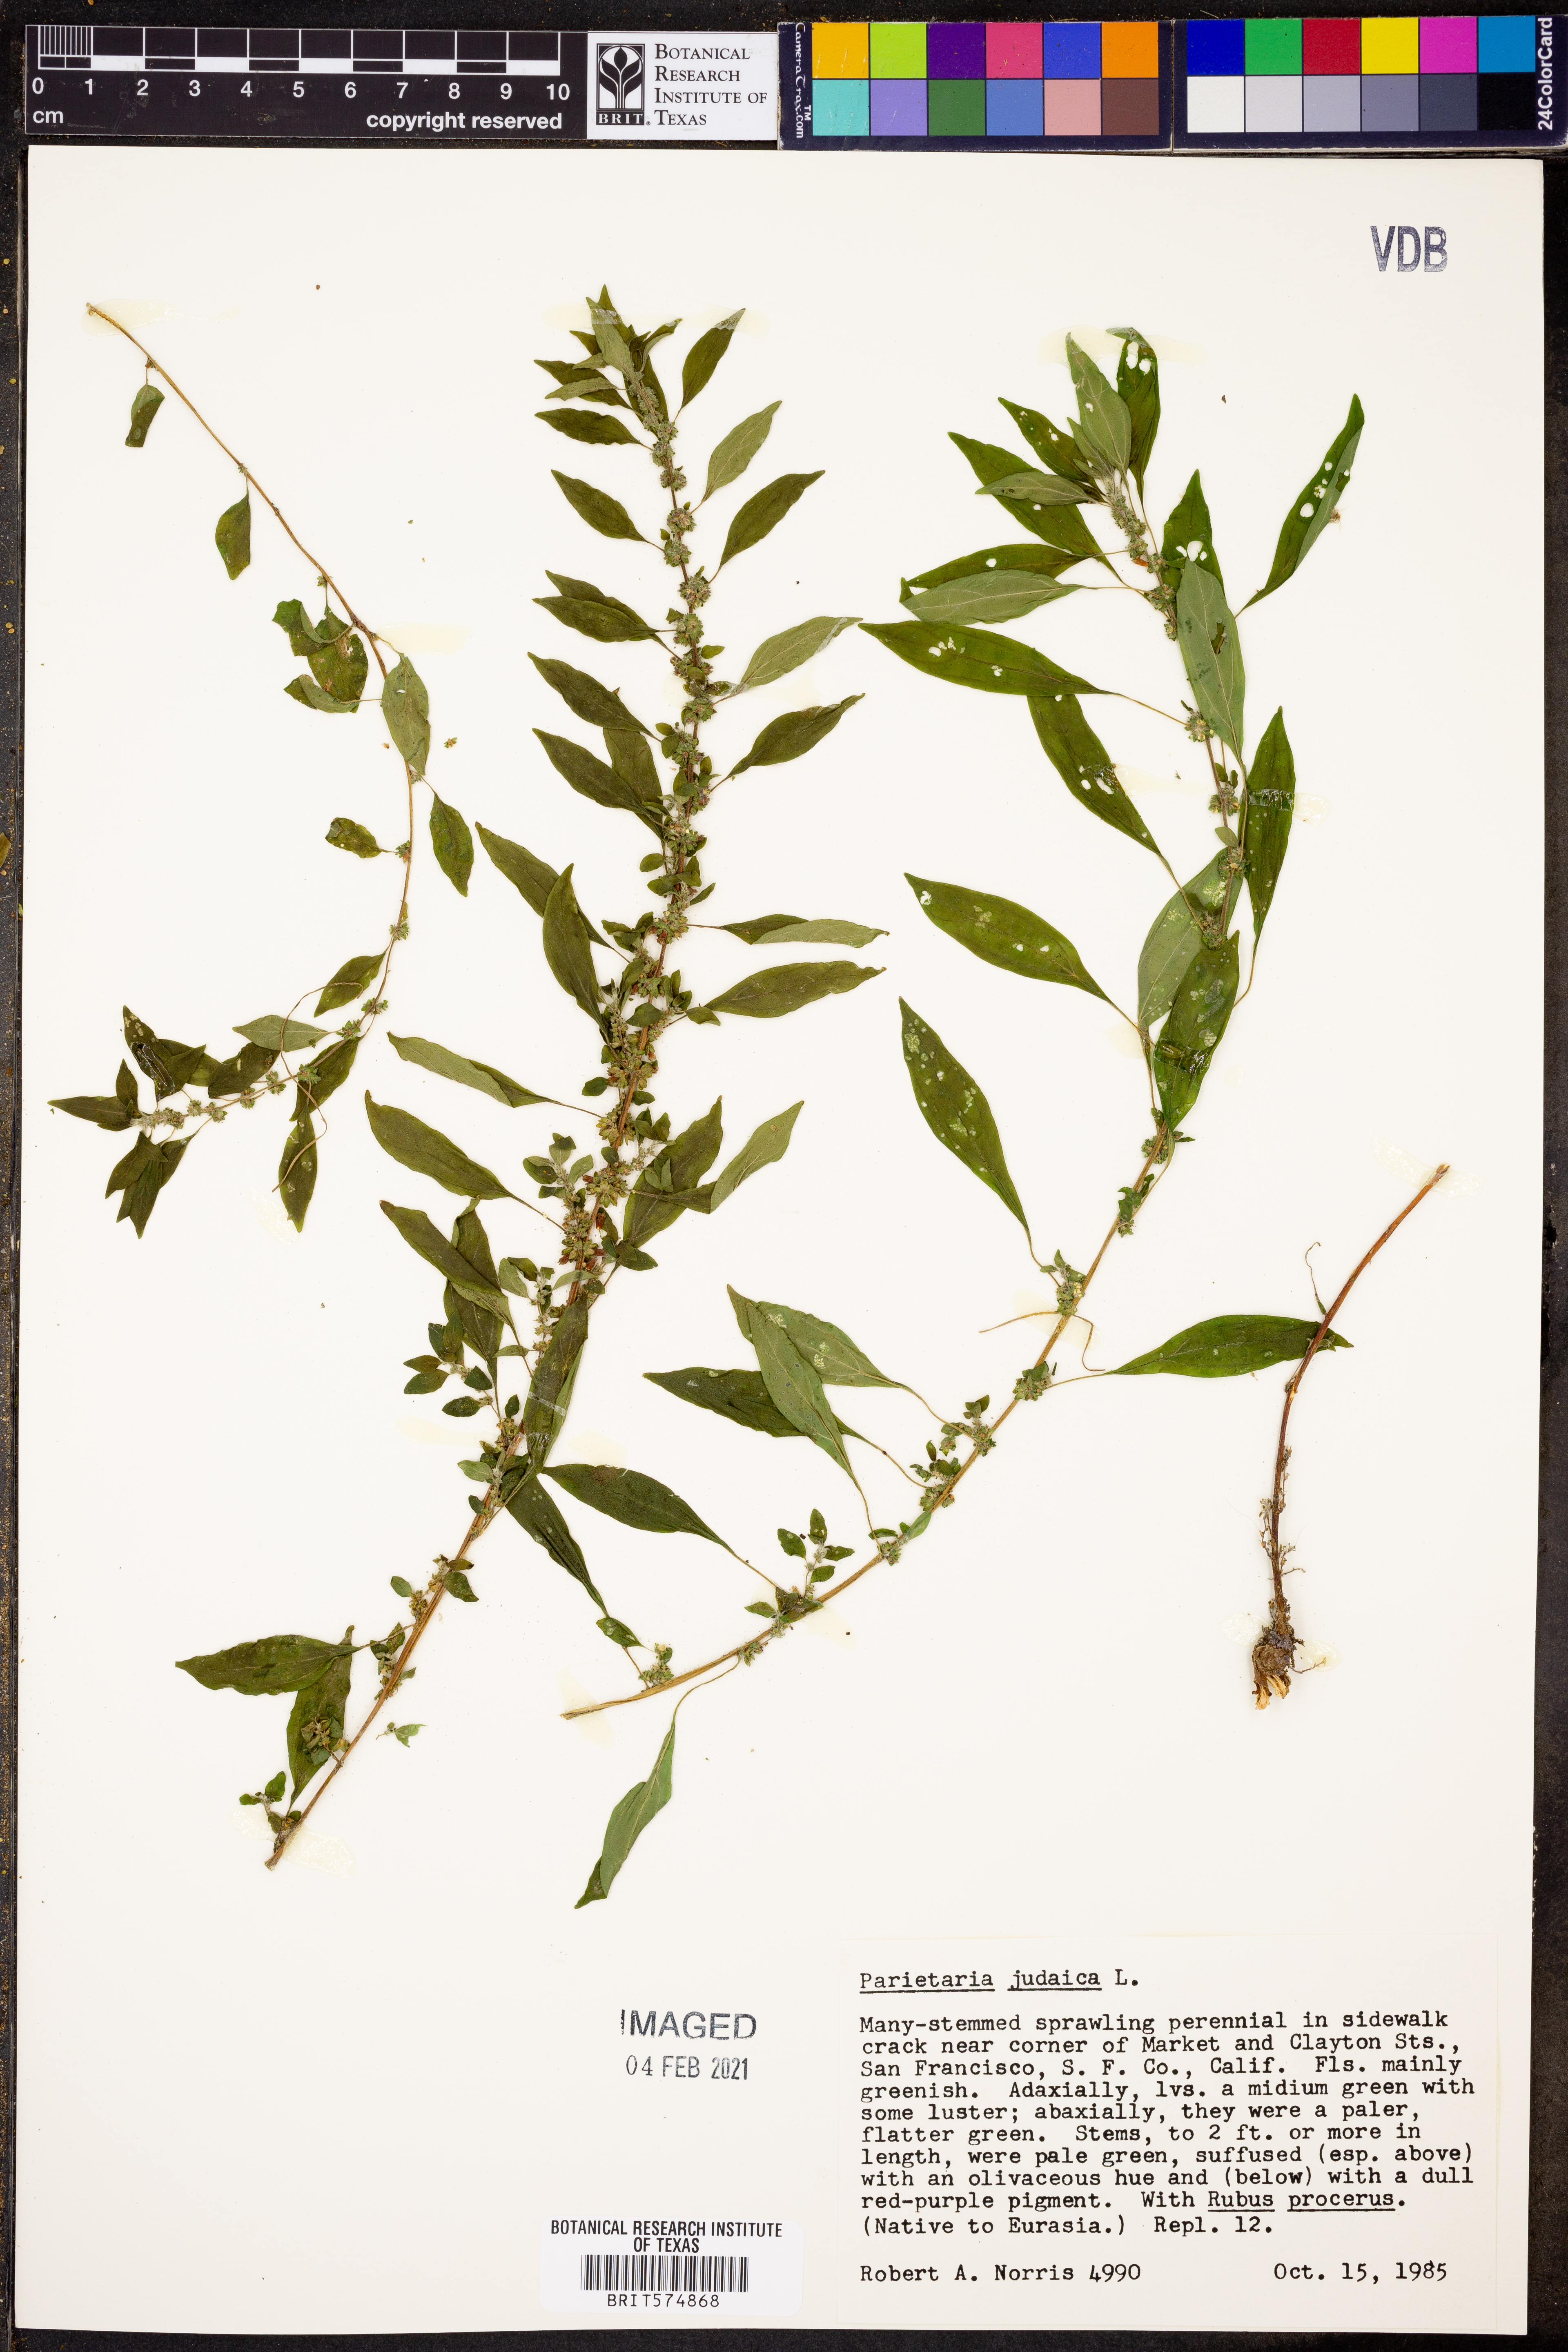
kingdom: Plantae
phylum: Tracheophyta
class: Magnoliopsida
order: Rosales
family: Urticaceae
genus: Parietaria
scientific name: Parietaria judaica
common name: Pellitory-of-the-wall
